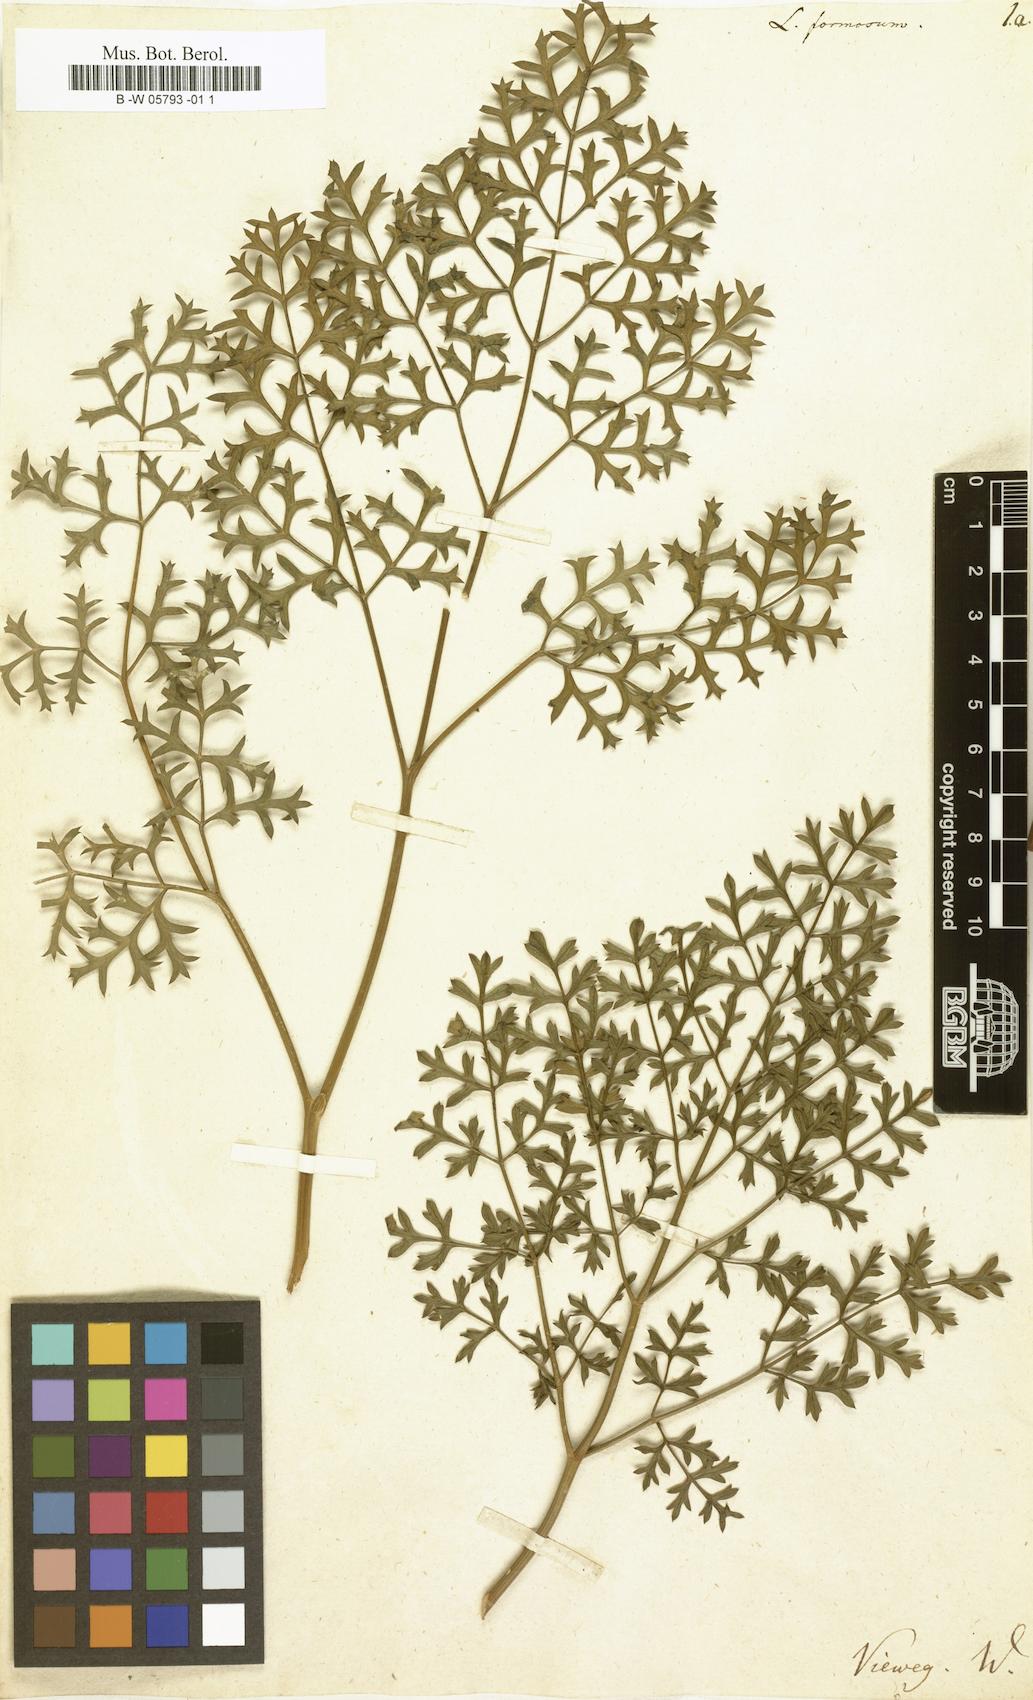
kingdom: Plantae
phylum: Tracheophyta
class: Magnoliopsida
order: Apiales
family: Apiaceae
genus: Laserpitium
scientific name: Laserpitium gallicum
